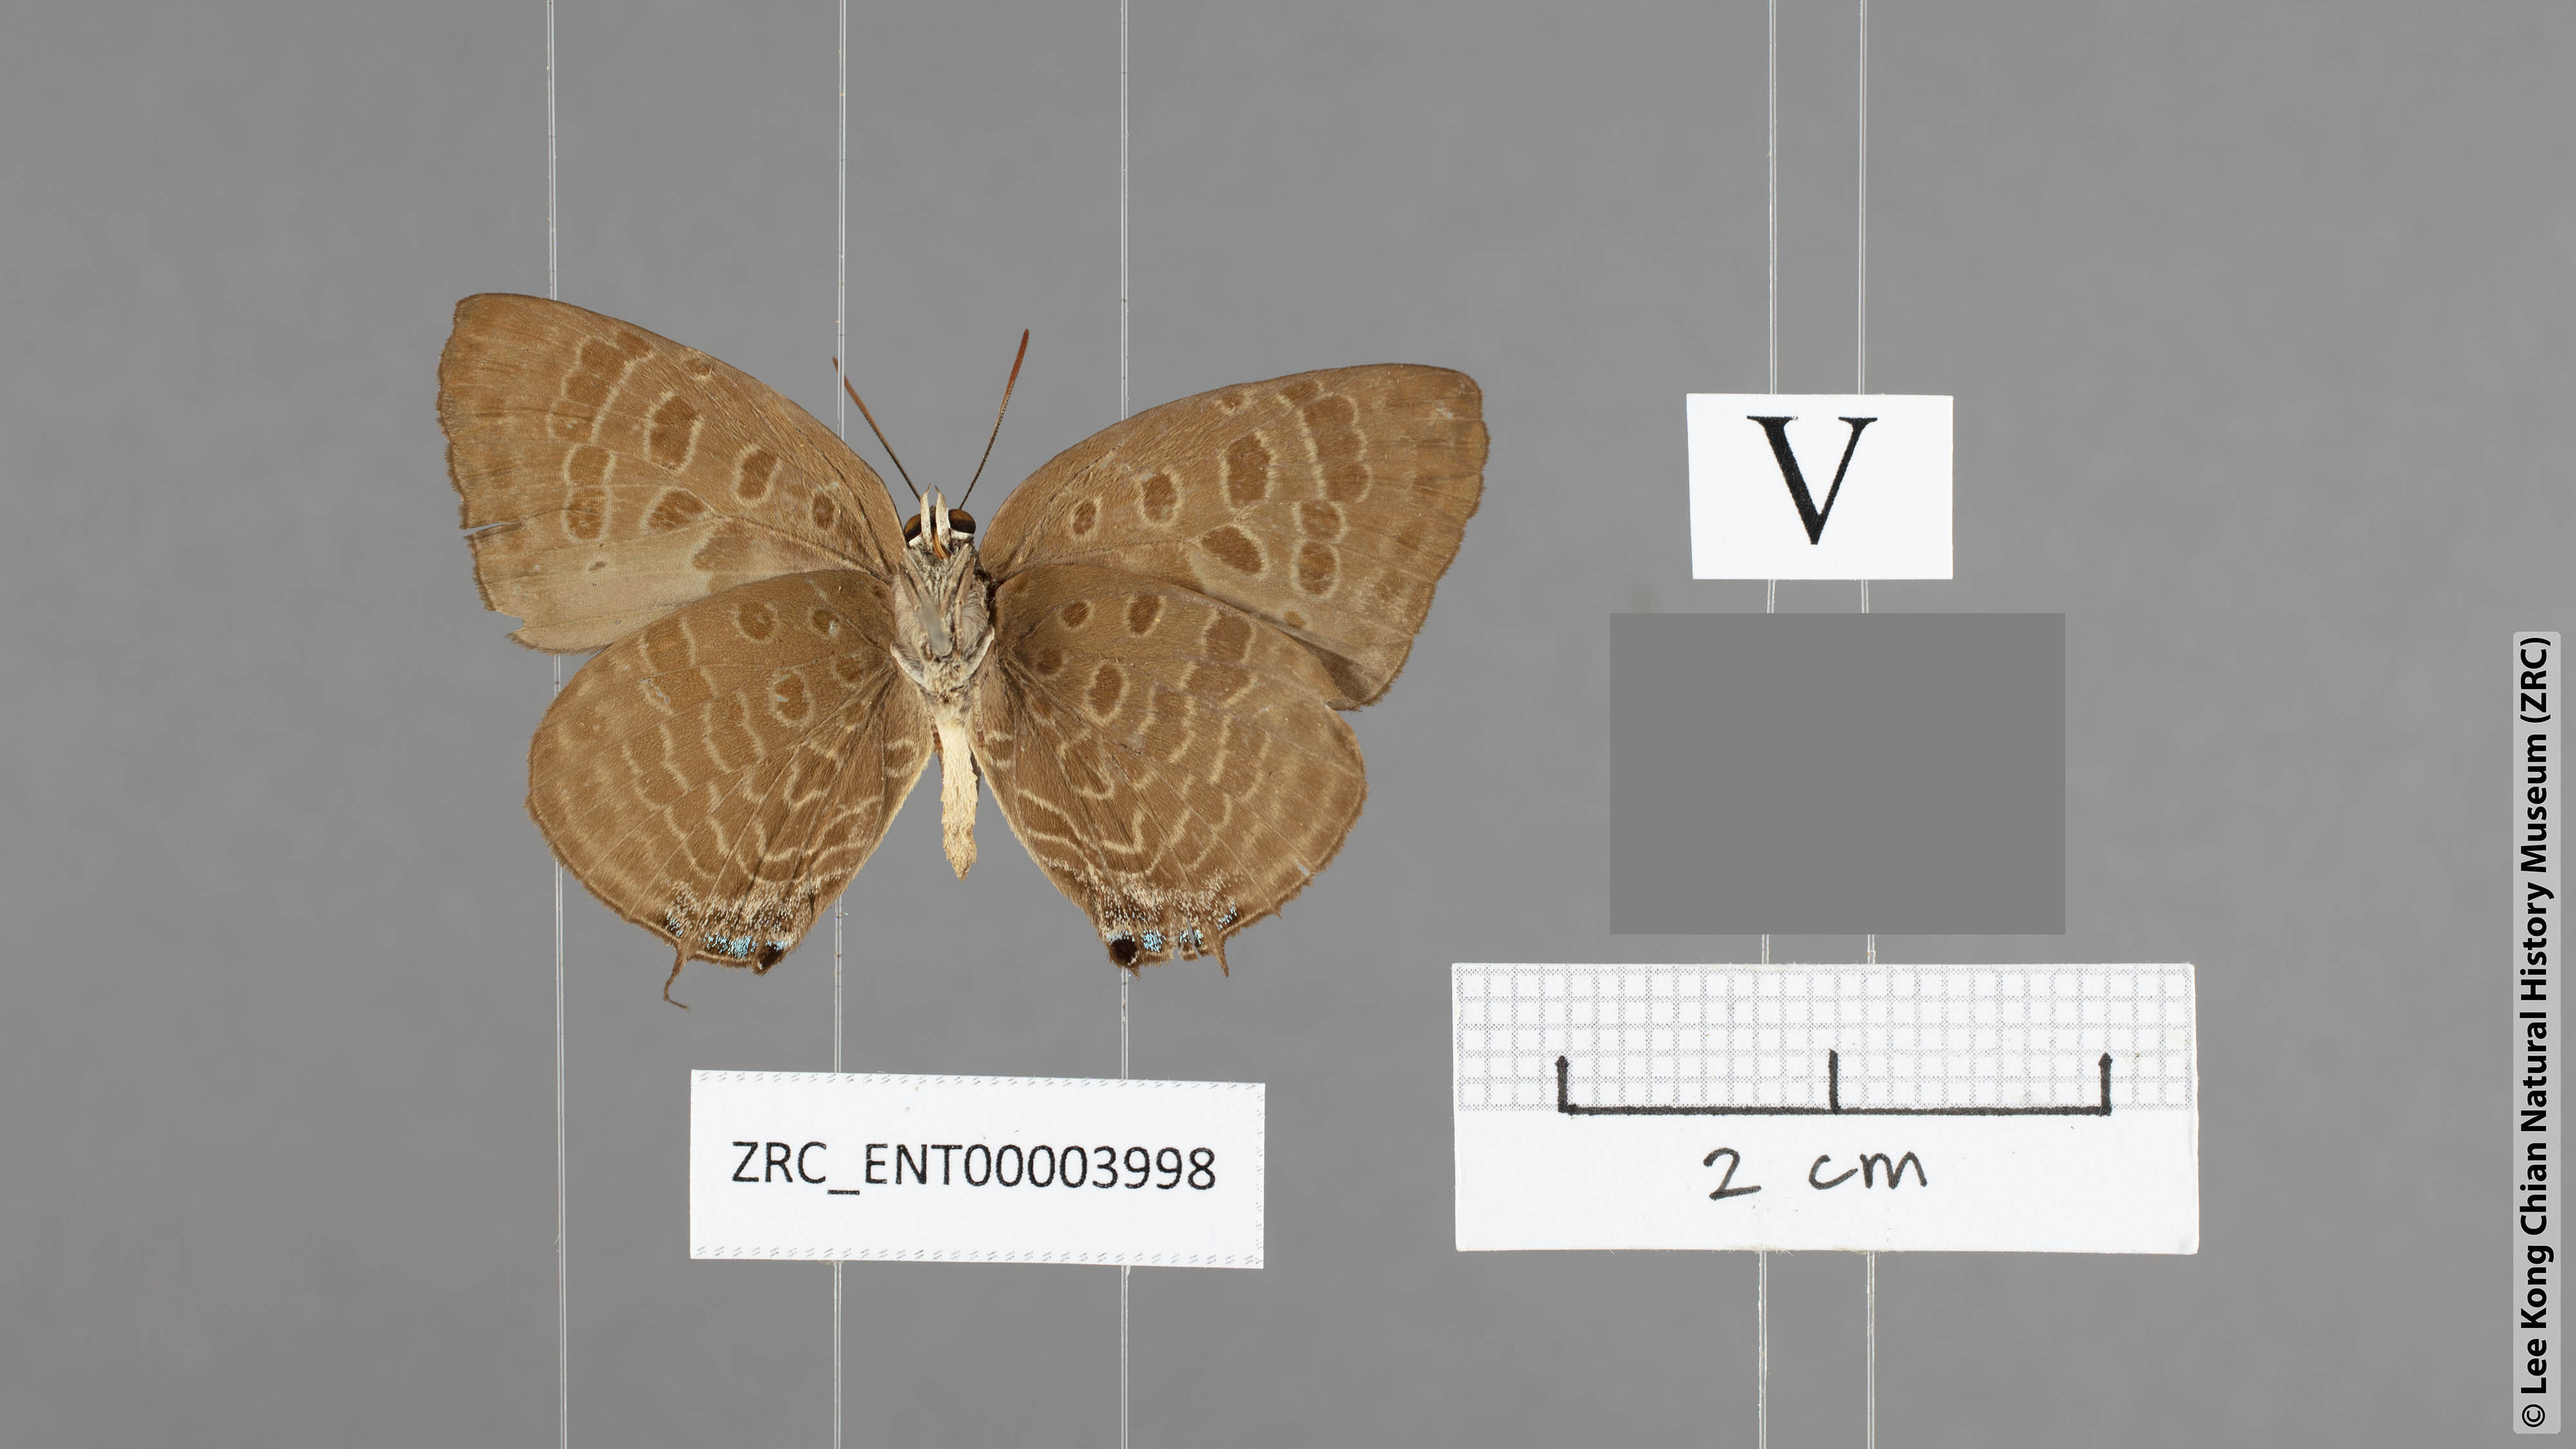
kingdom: Animalia
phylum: Arthropoda
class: Insecta
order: Lepidoptera
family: Lycaenidae
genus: Arhopala
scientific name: Arhopala milleri
